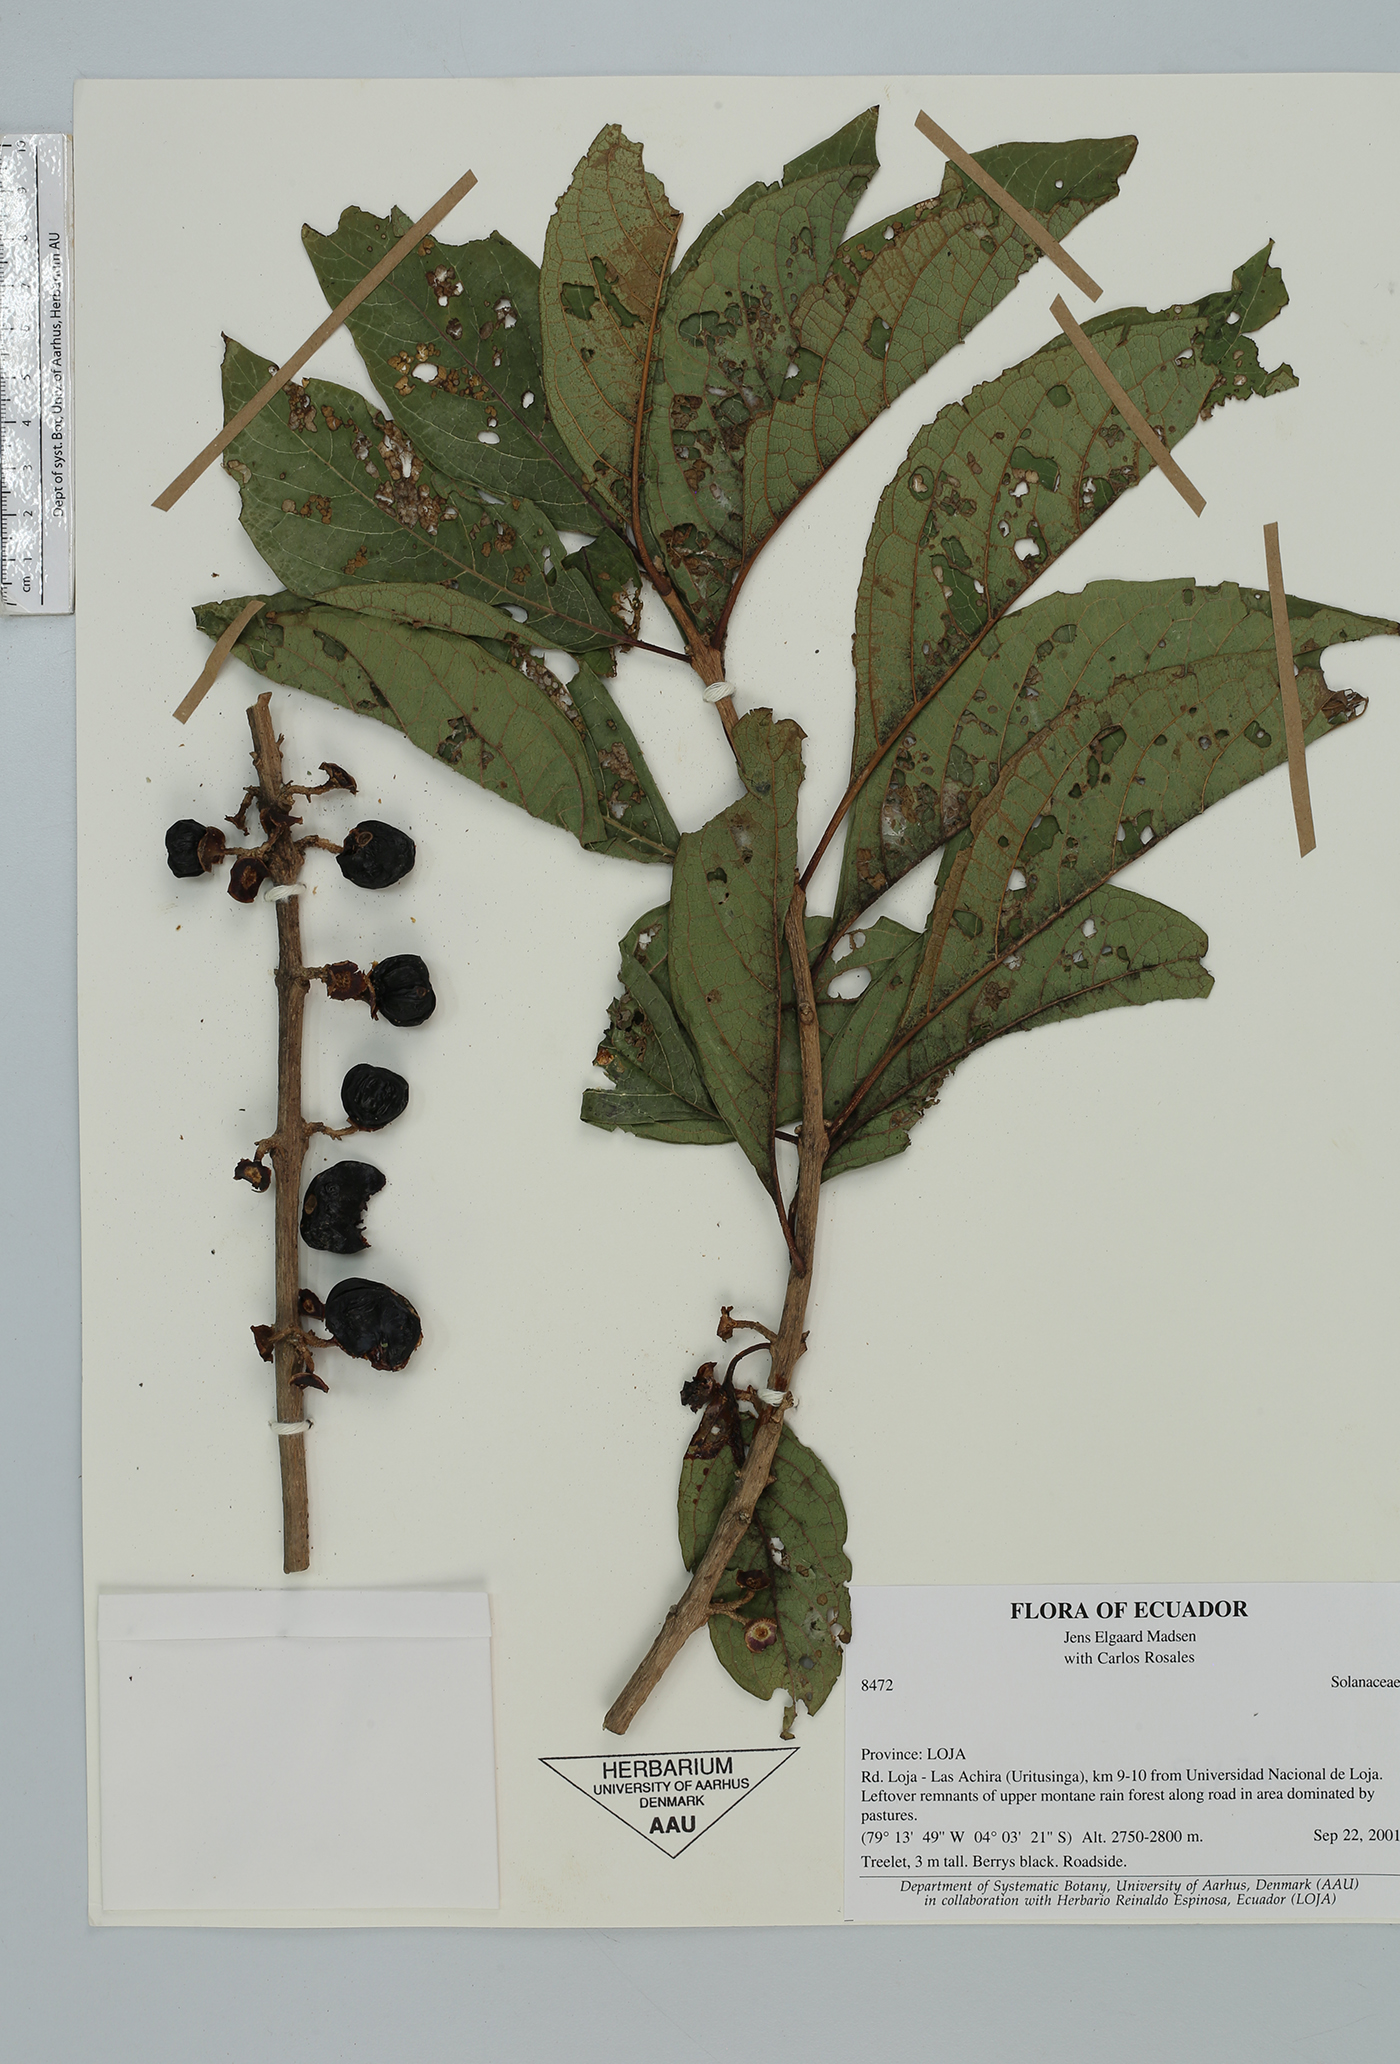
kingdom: Plantae
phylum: Tracheophyta
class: Magnoliopsida
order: Solanales
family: Solanaceae
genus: Solanum
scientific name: Solanum
